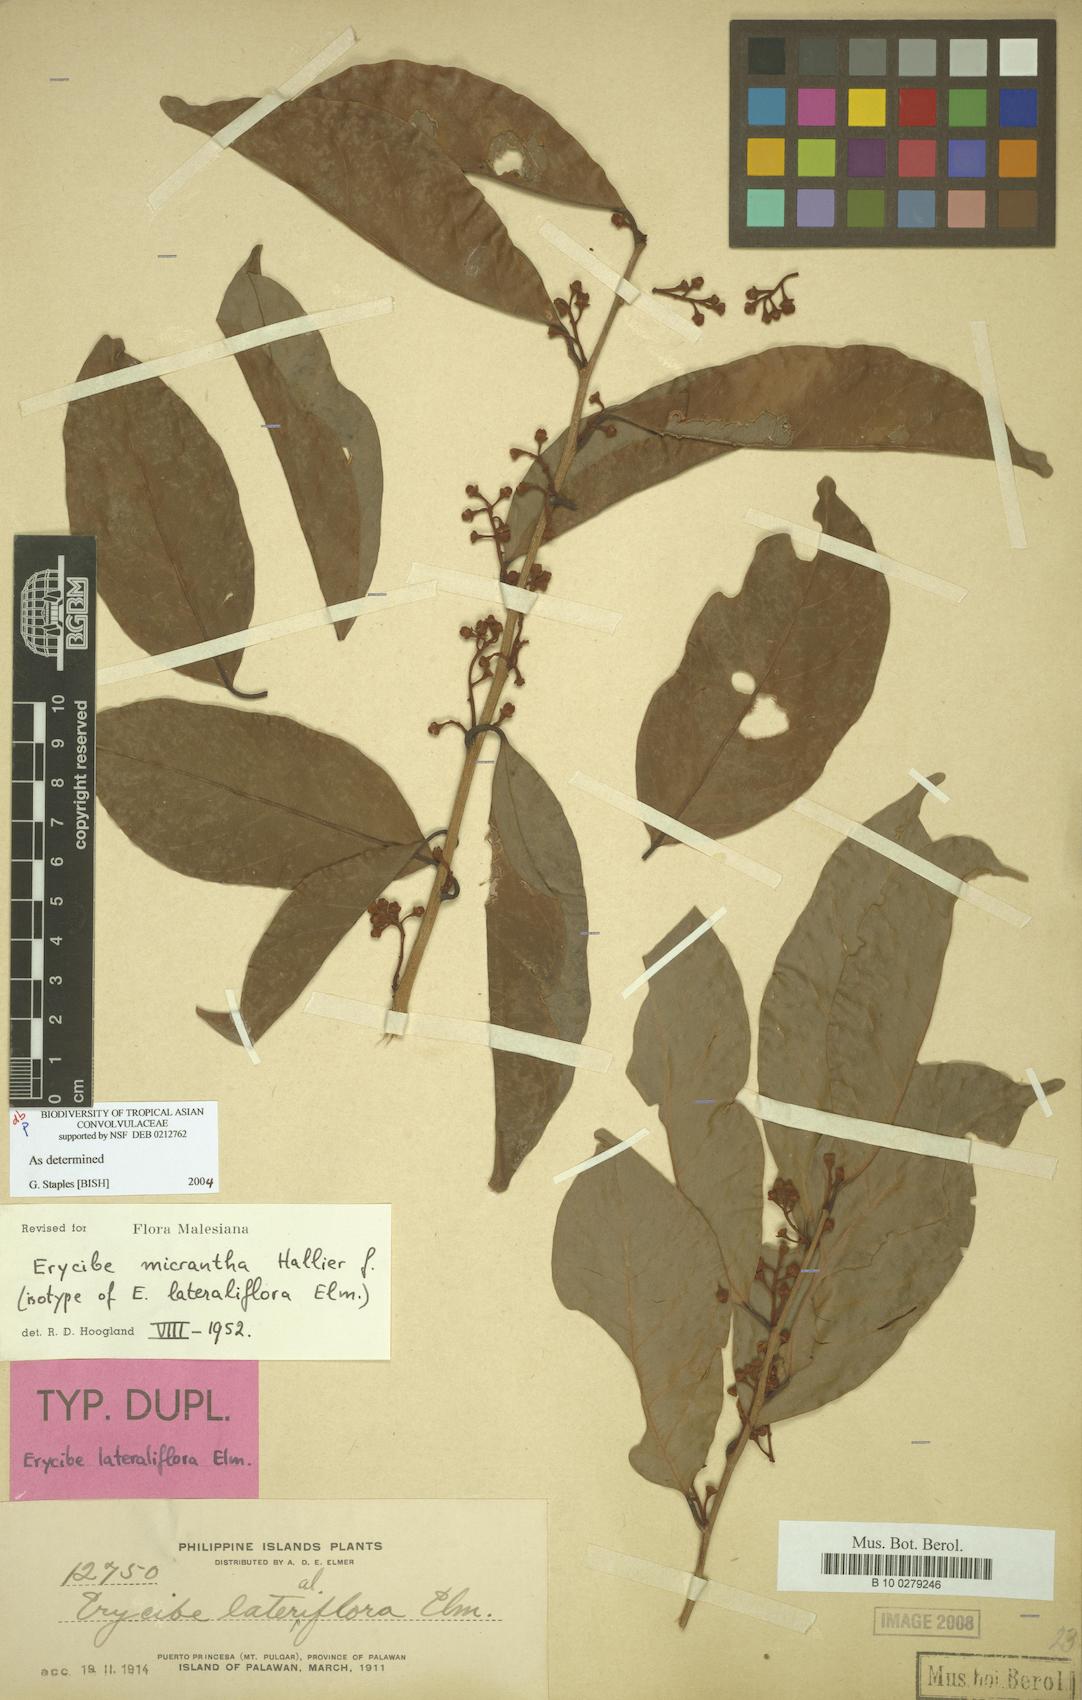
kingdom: Plantae
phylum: Tracheophyta
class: Magnoliopsida
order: Solanales
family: Convolvulaceae
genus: Erycibe
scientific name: Erycibe micrantha
